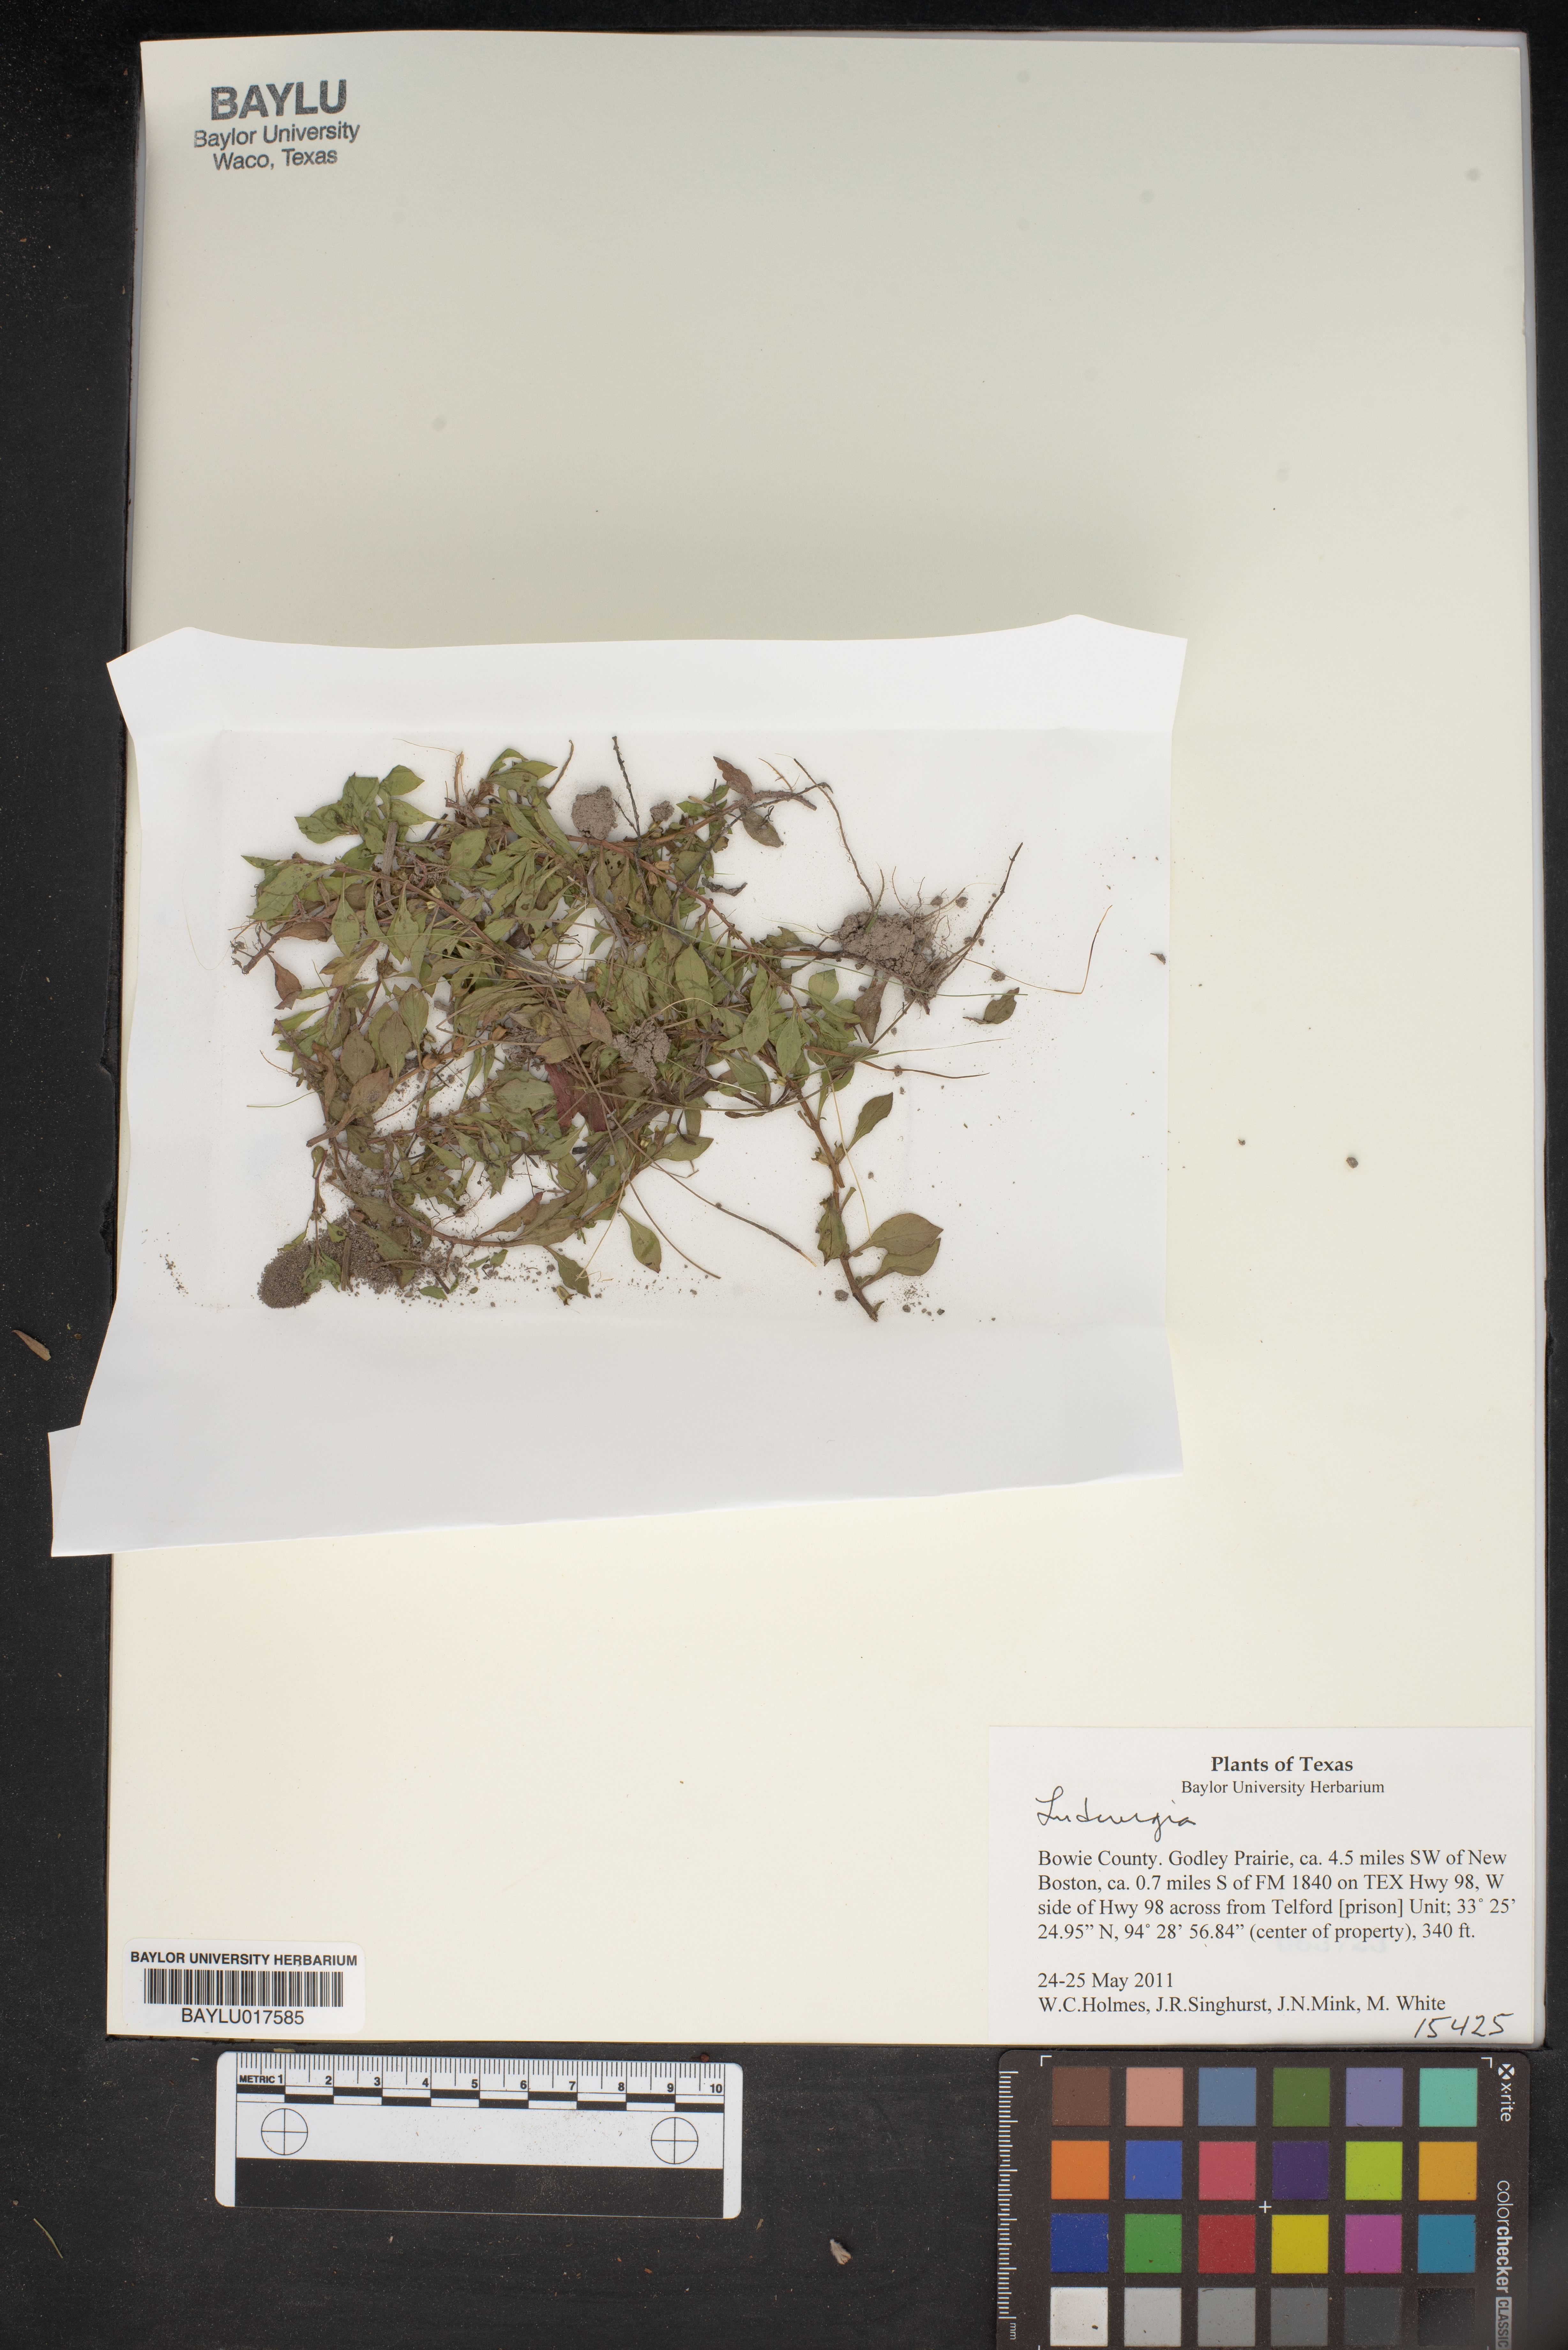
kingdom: Plantae
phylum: Tracheophyta
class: Magnoliopsida
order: Myrtales
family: Onagraceae
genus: Ludwigia
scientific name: Ludwigia
